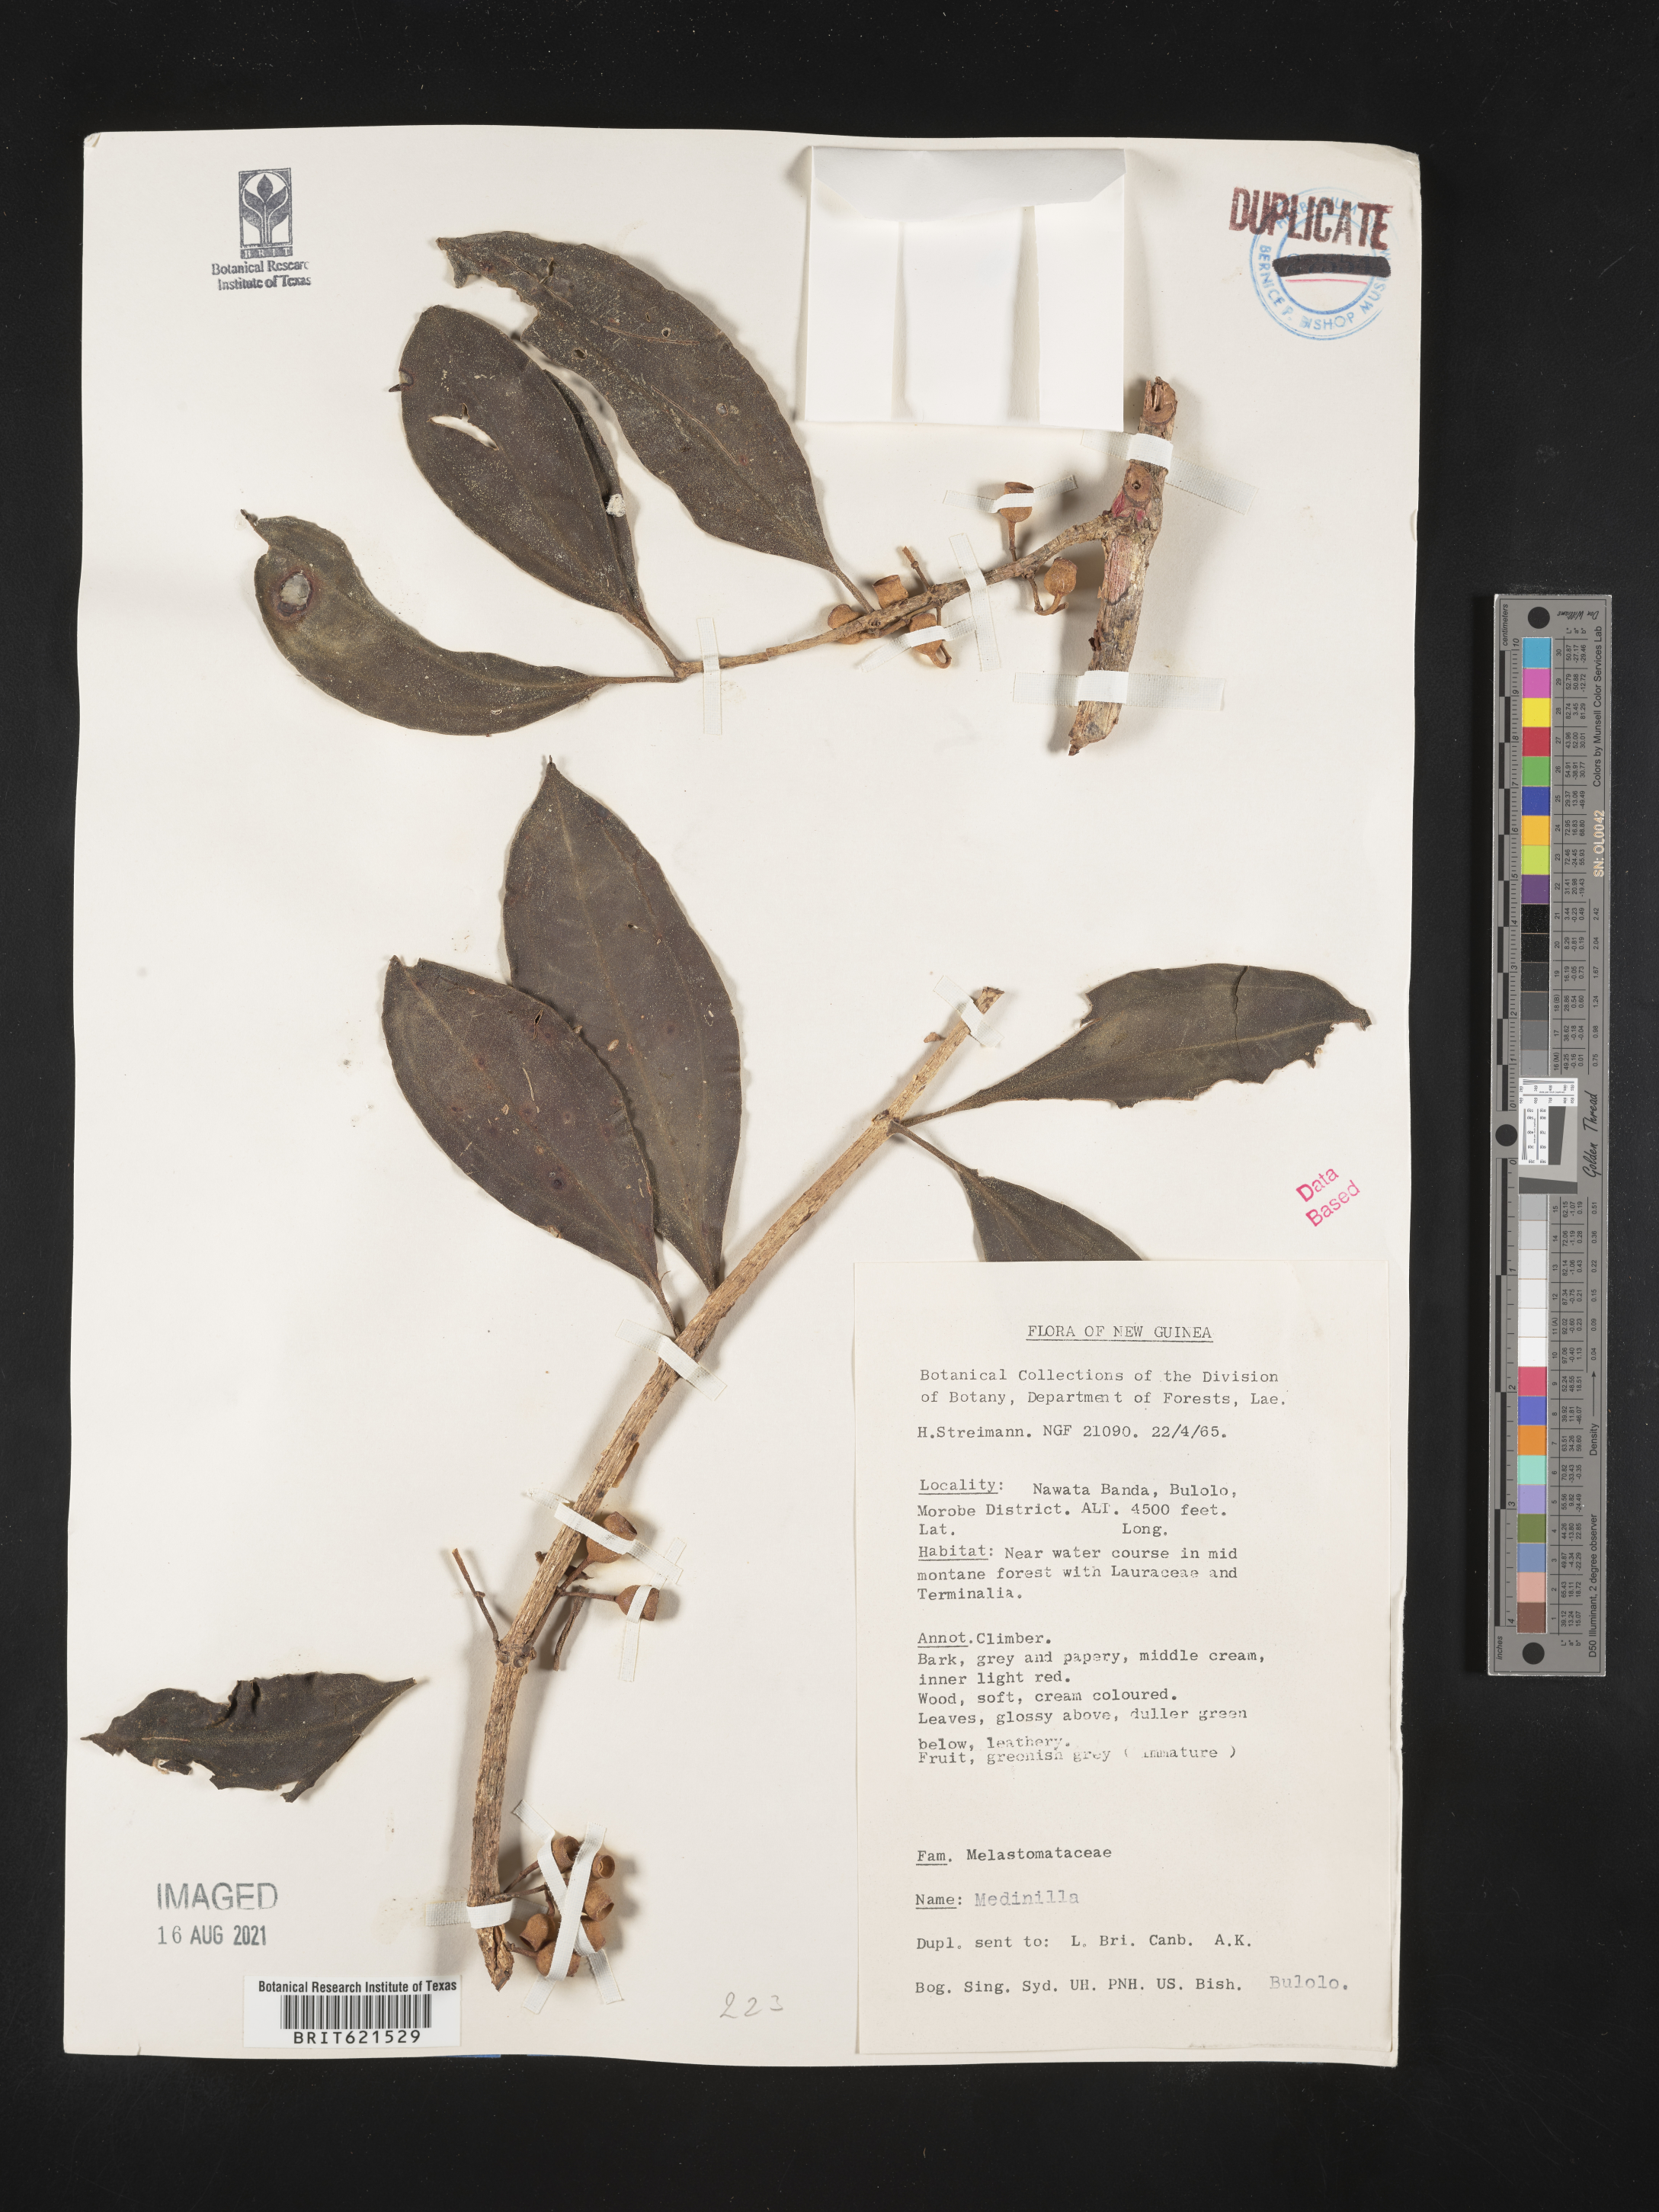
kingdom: Plantae
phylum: Tracheophyta
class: Magnoliopsida
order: Myrtales
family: Melastomataceae
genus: Medinilla
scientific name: Medinilla
